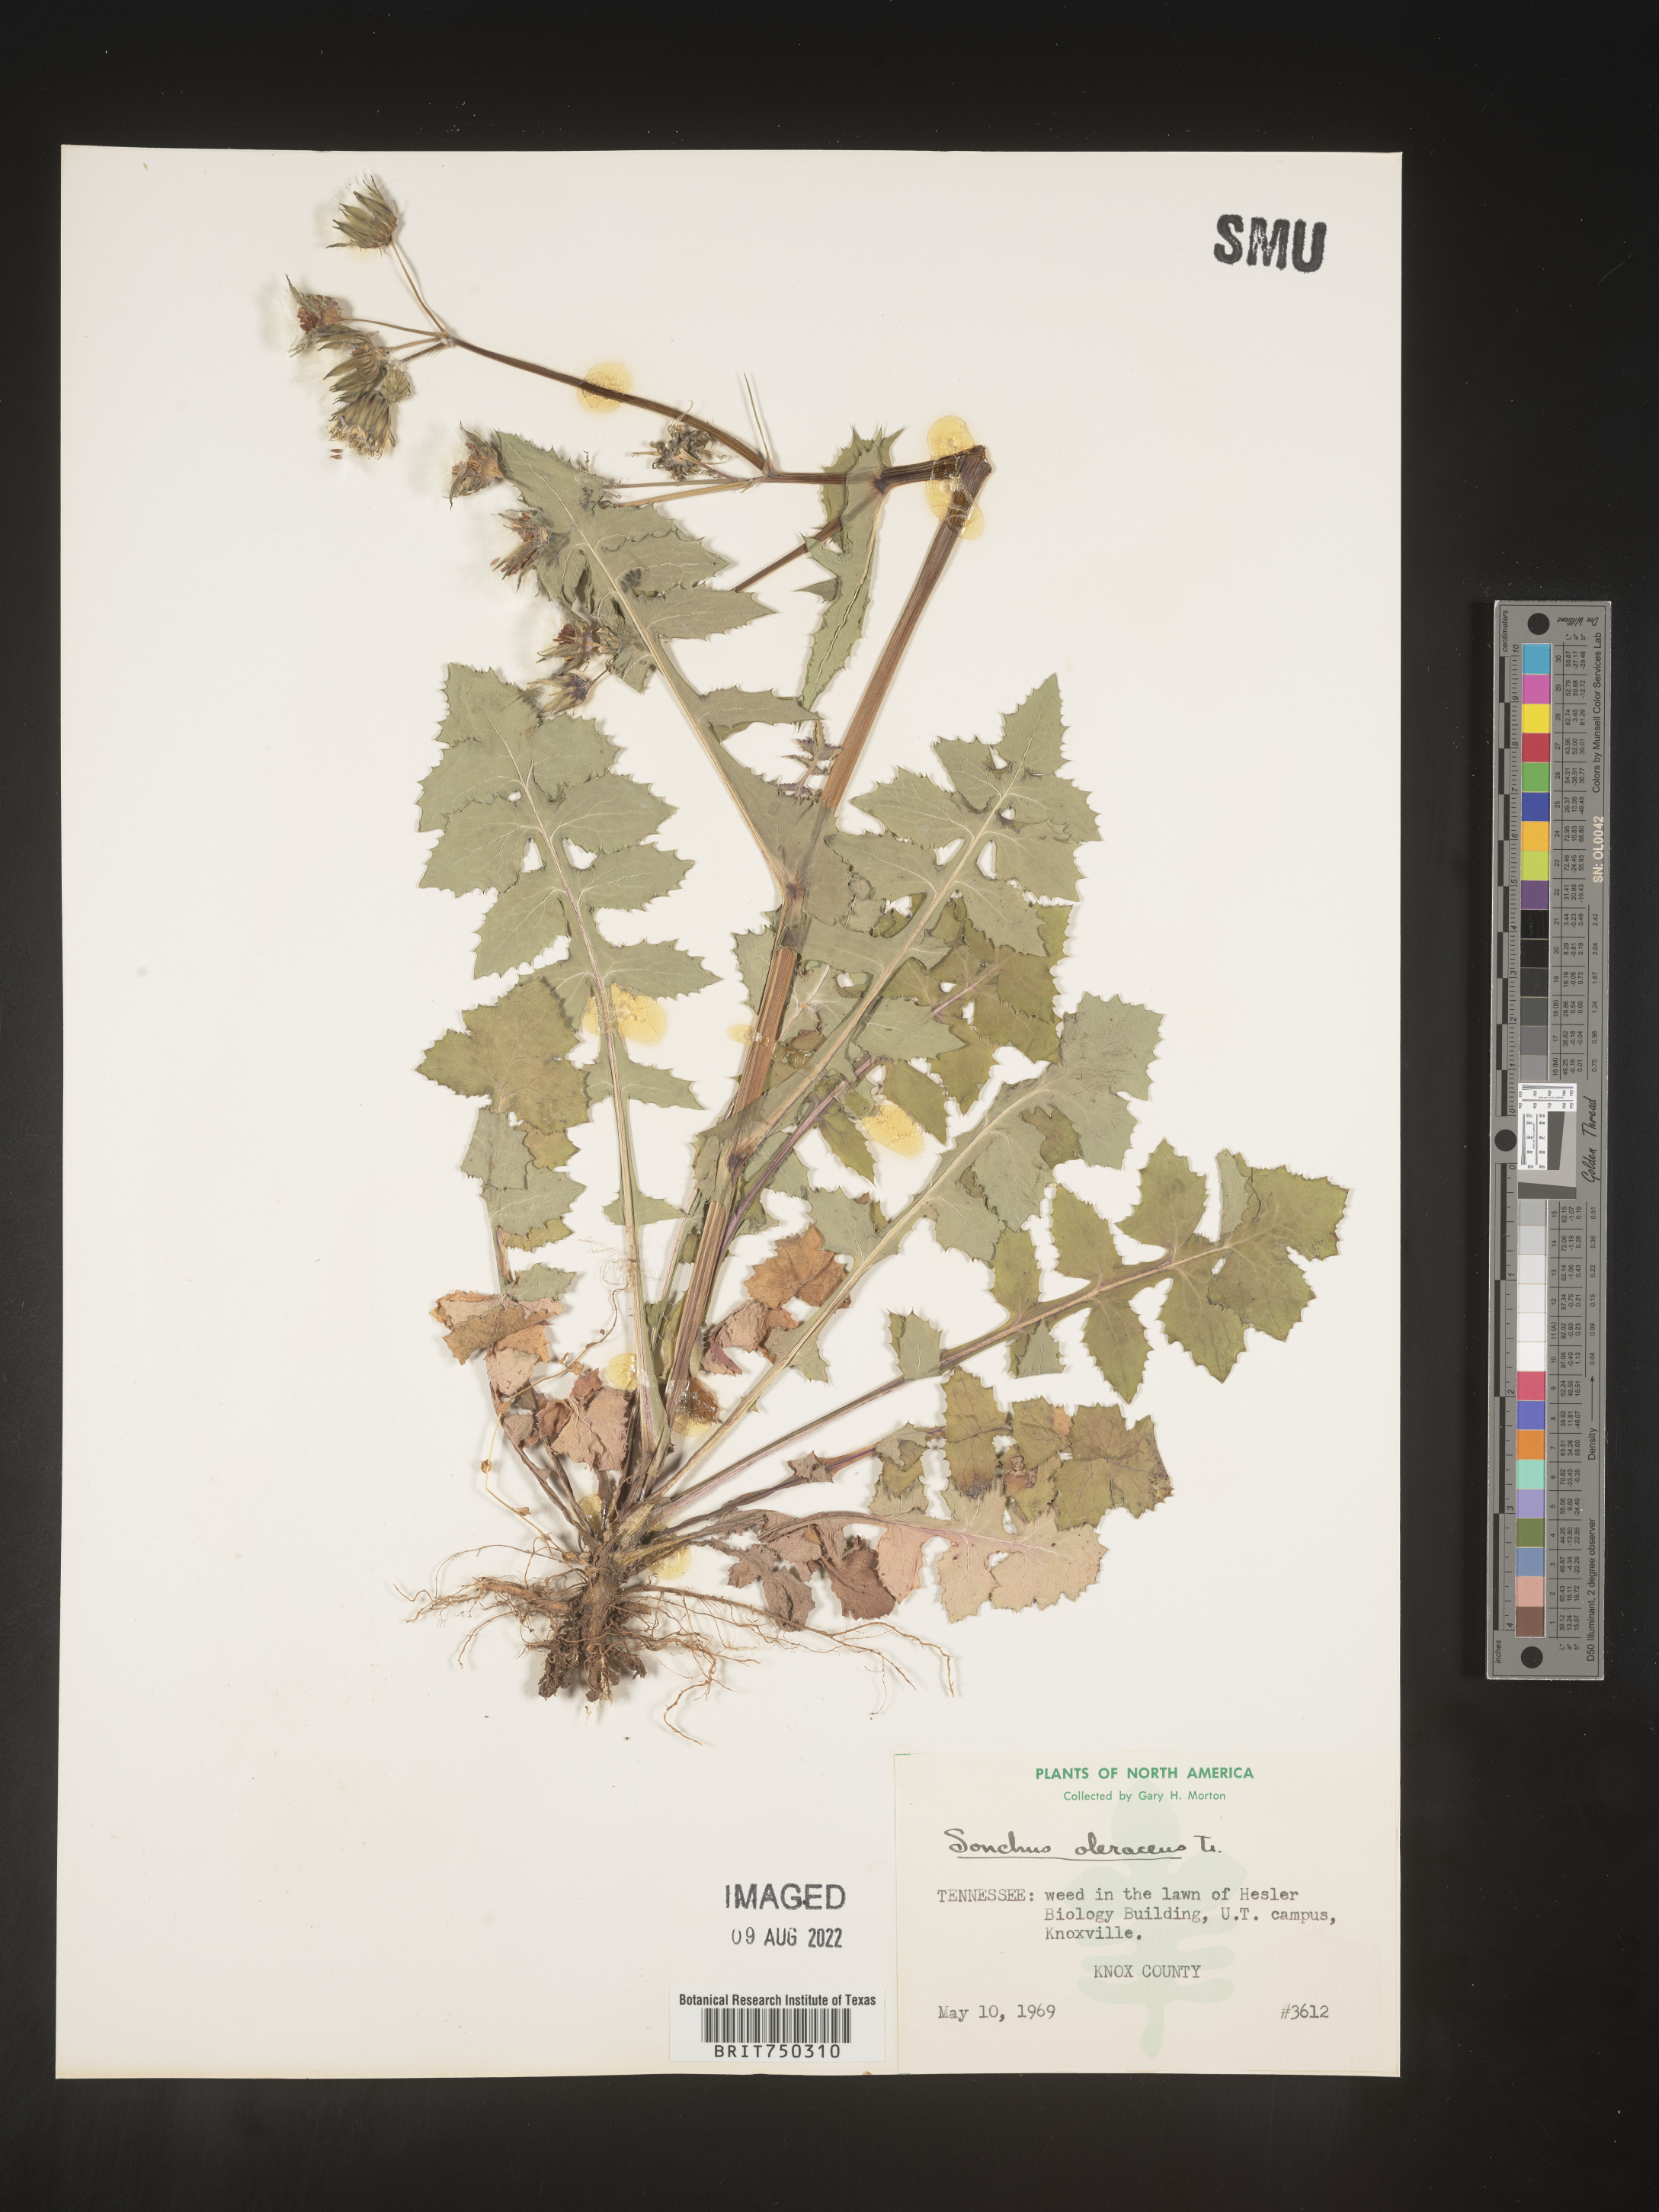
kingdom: Plantae
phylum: Tracheophyta
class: Magnoliopsida
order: Asterales
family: Asteraceae
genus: Sonchus
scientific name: Sonchus oleraceus
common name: Common sowthistle
